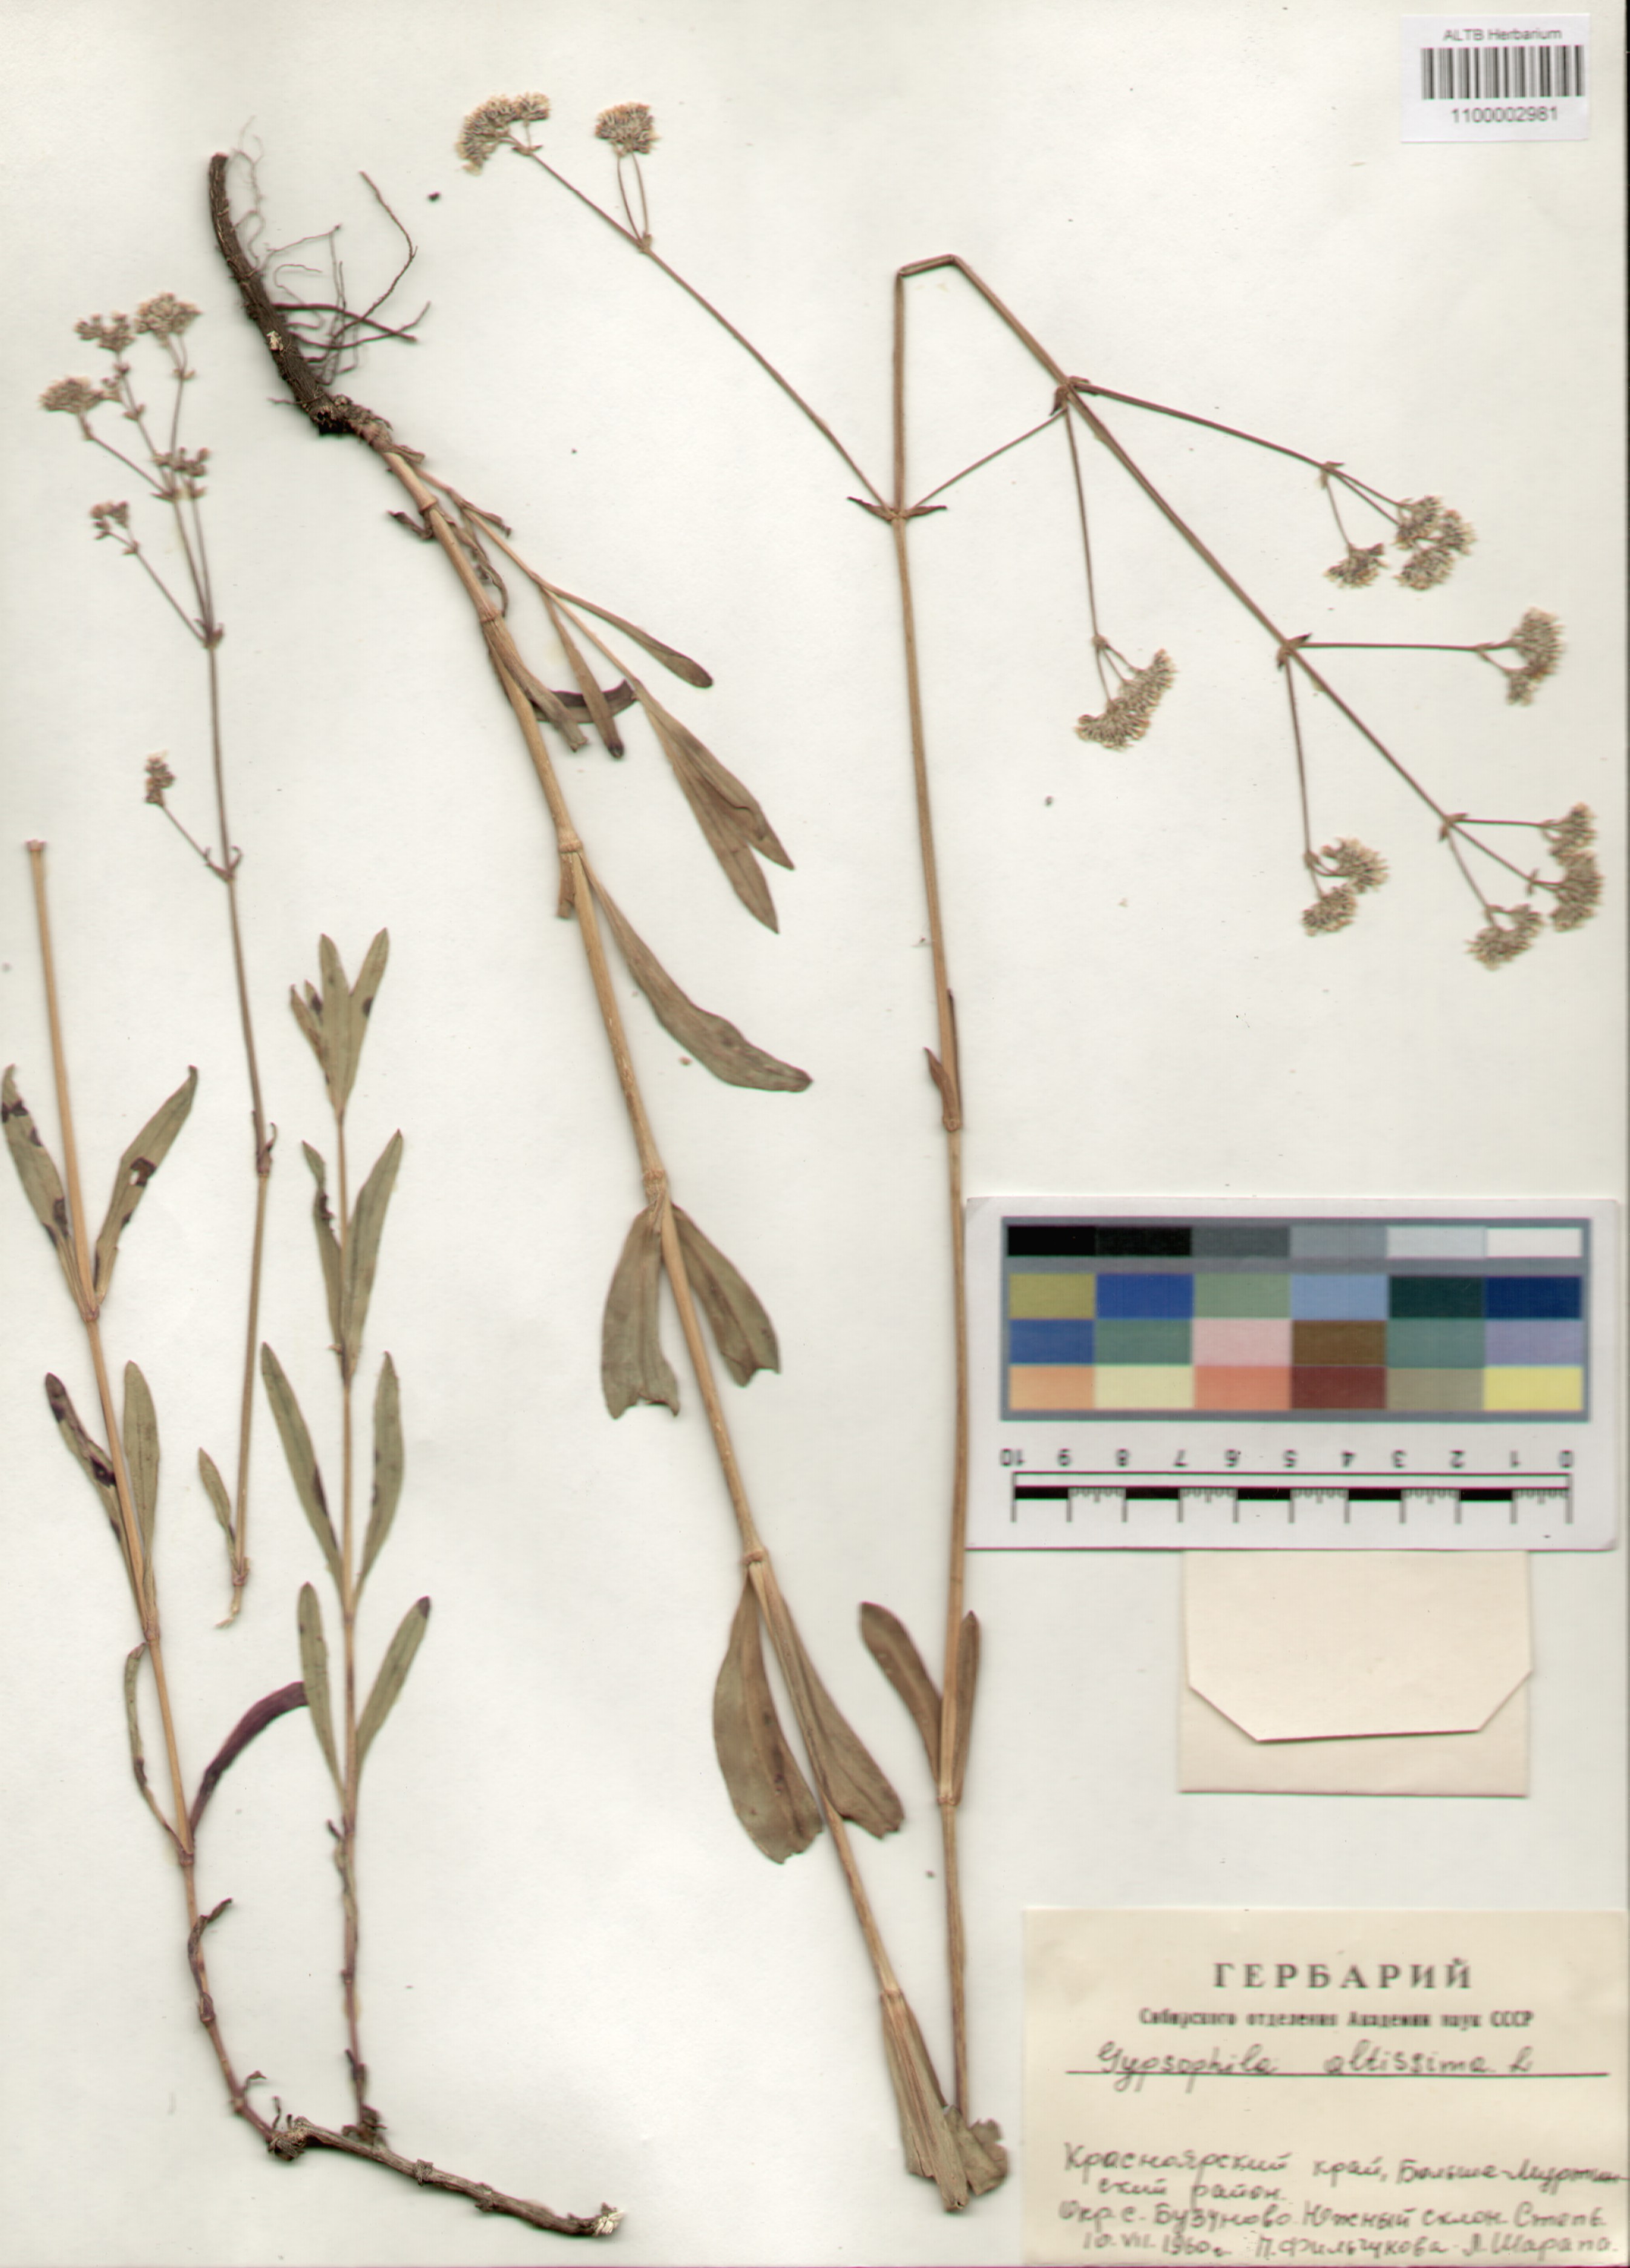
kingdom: Plantae
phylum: Tracheophyta
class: Magnoliopsida
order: Caryophyllales
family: Caryophyllaceae
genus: Gypsophila
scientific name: Gypsophila altissima
